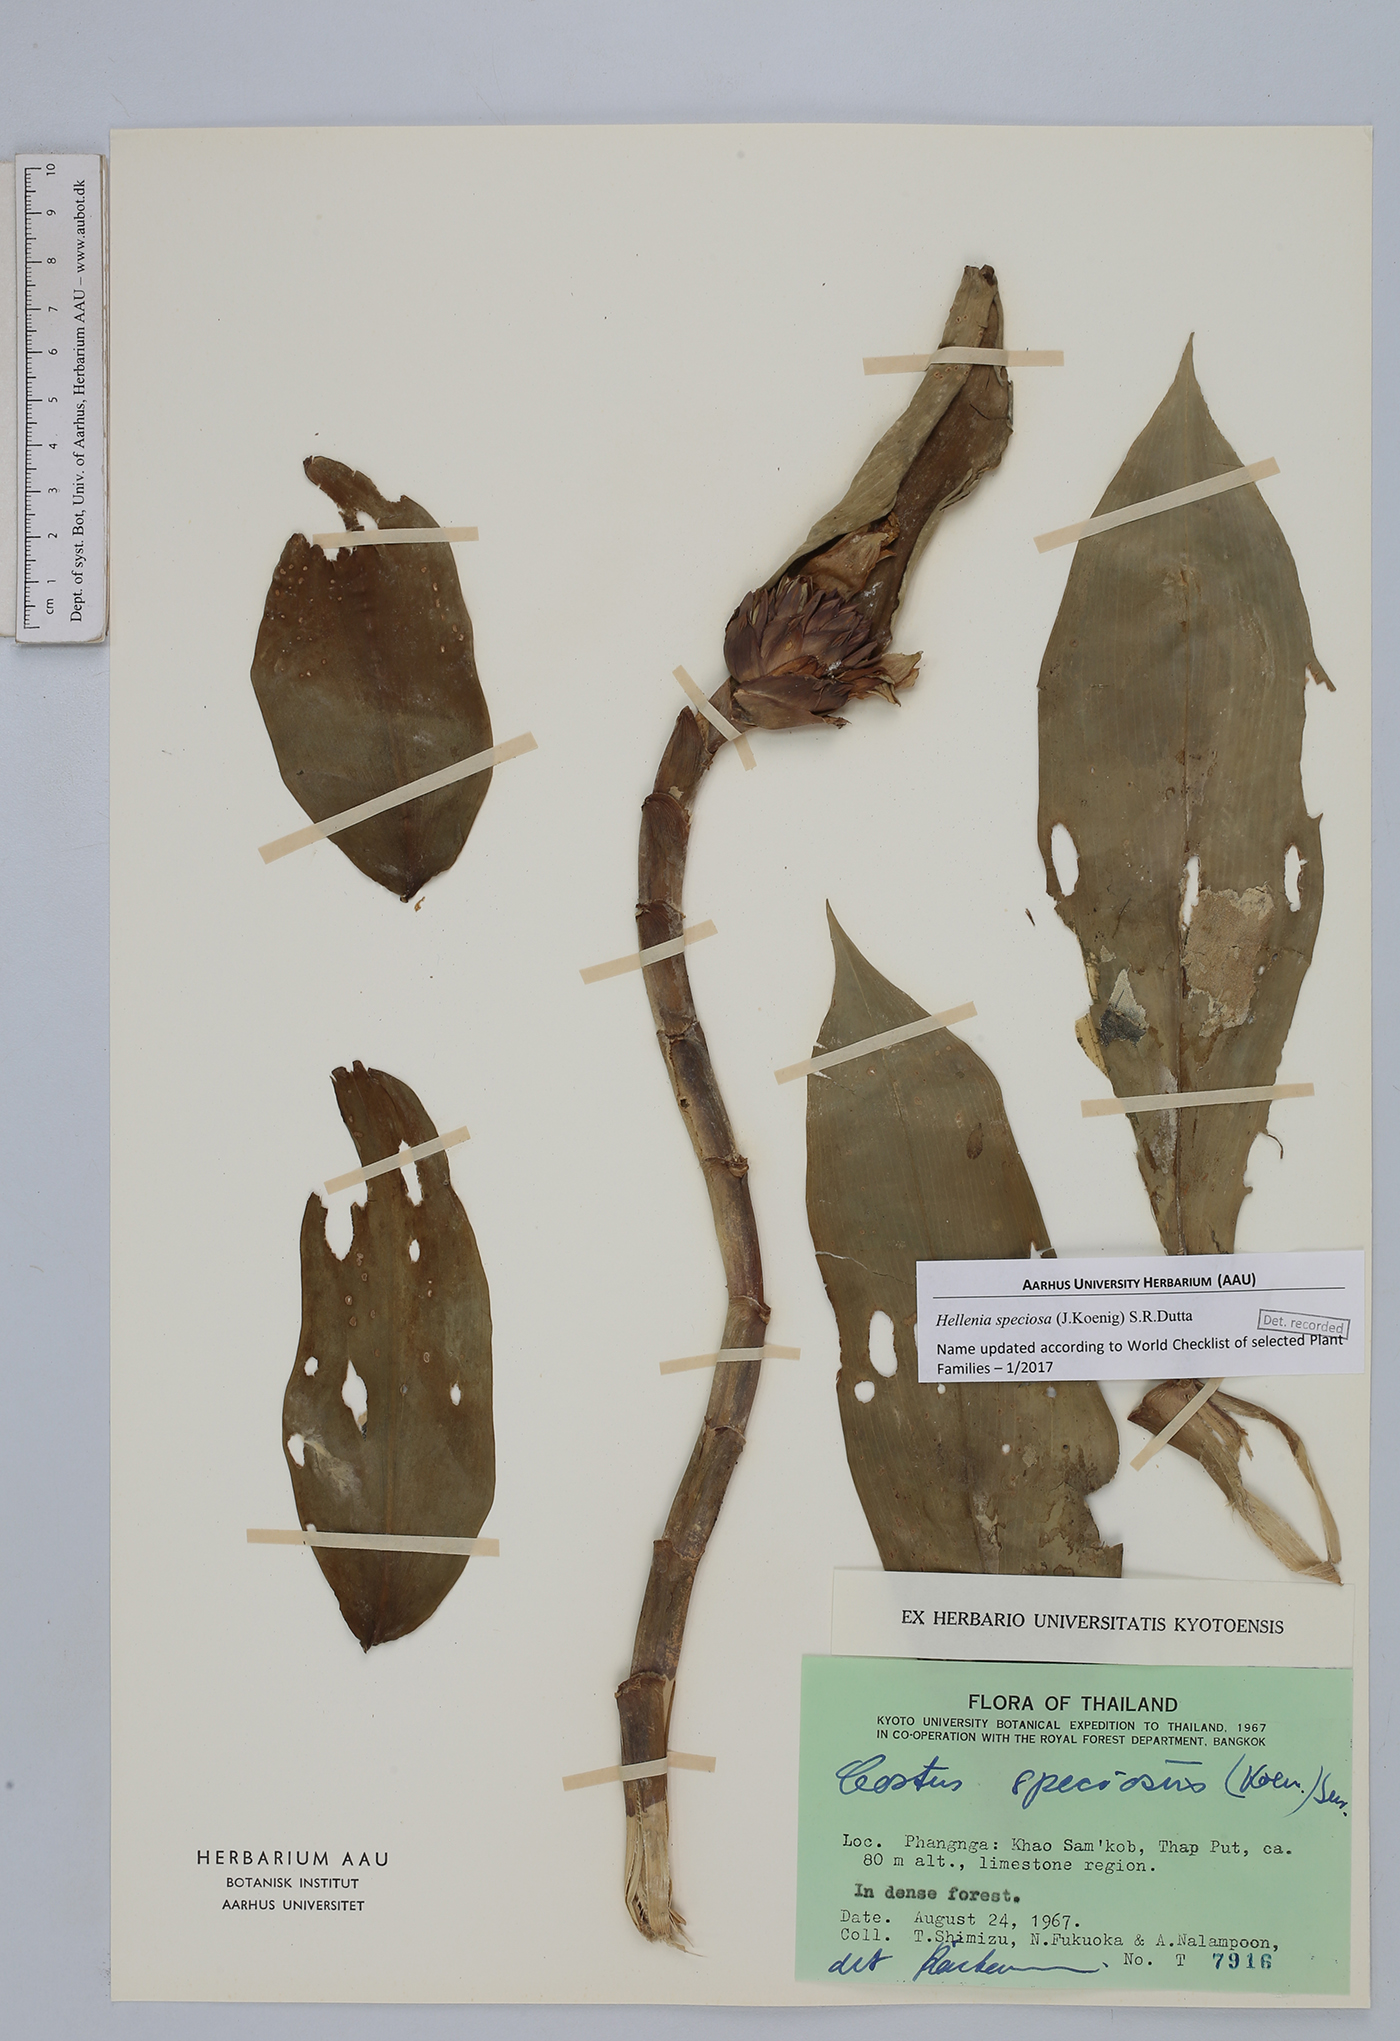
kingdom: Plantae
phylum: Tracheophyta
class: Liliopsida
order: Zingiberales
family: Costaceae
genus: Hellenia
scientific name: Hellenia speciosa
